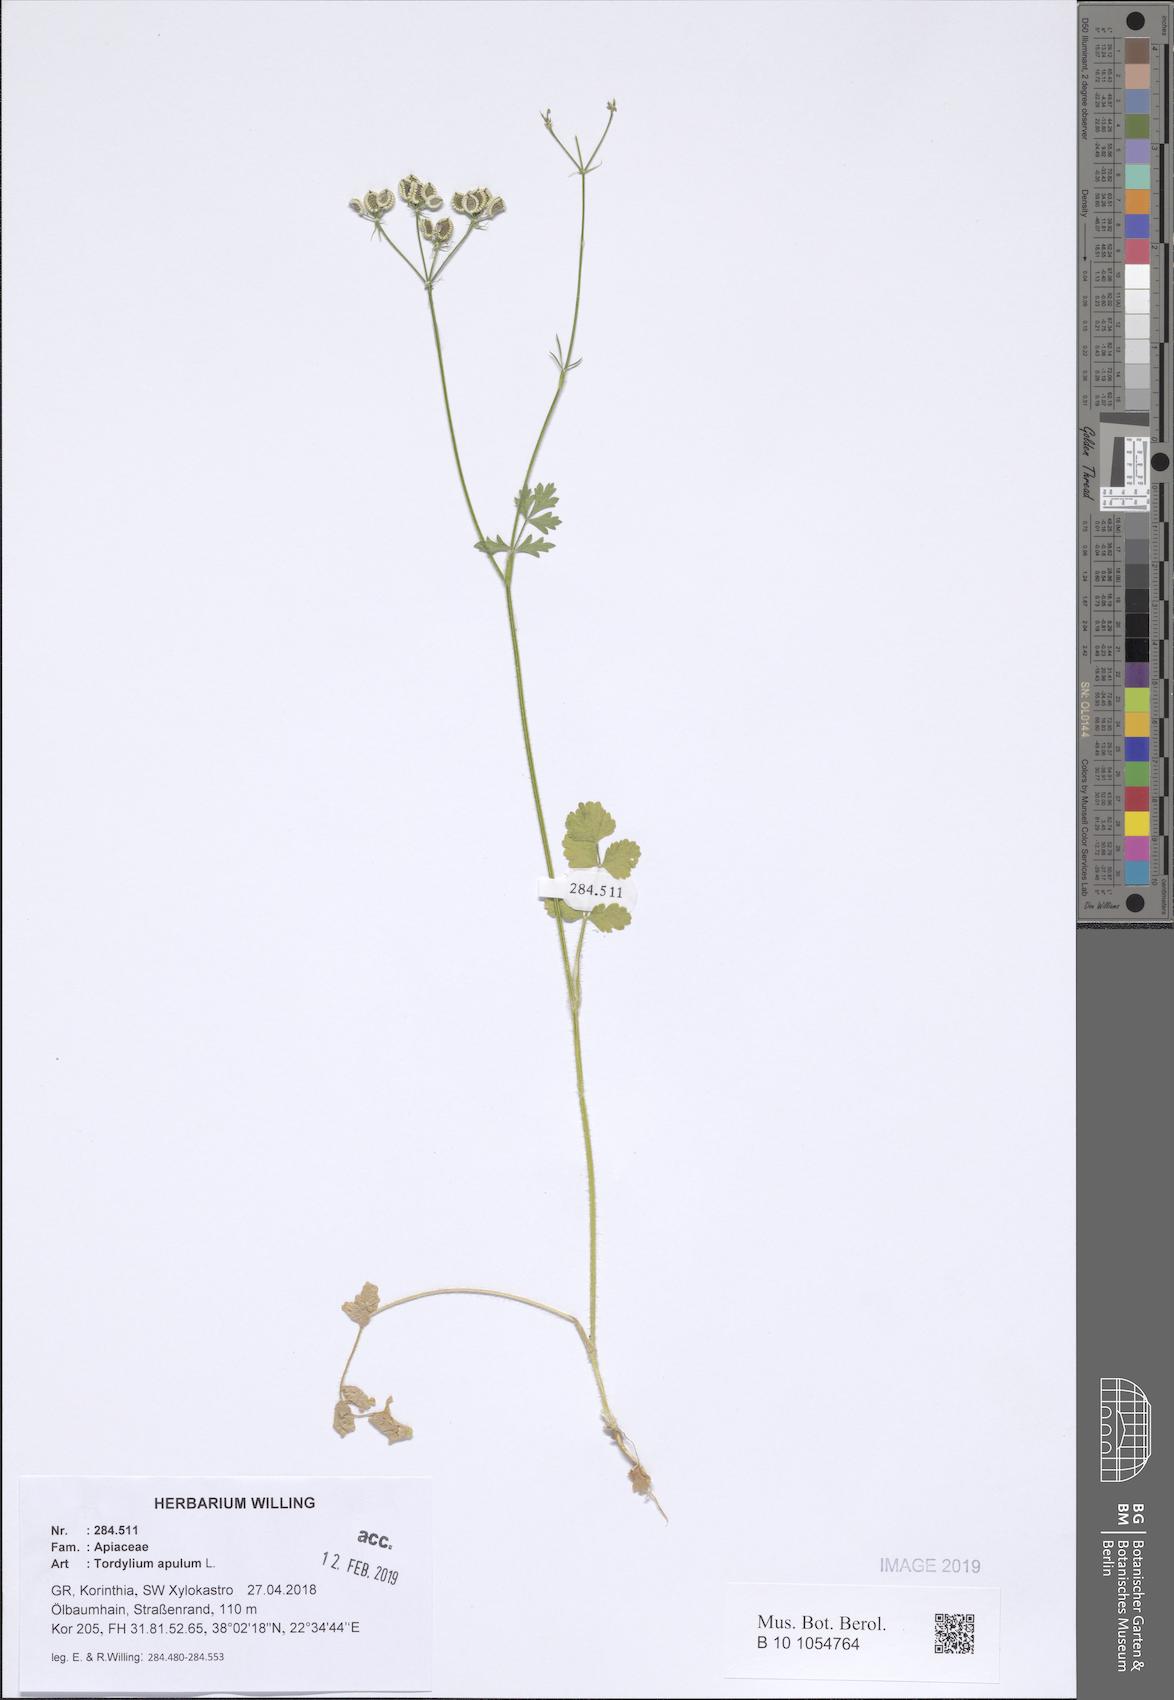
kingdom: Plantae
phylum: Tracheophyta
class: Magnoliopsida
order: Apiales
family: Apiaceae
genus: Tordylium
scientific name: Tordylium apulum
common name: Mediterranean hartwort
